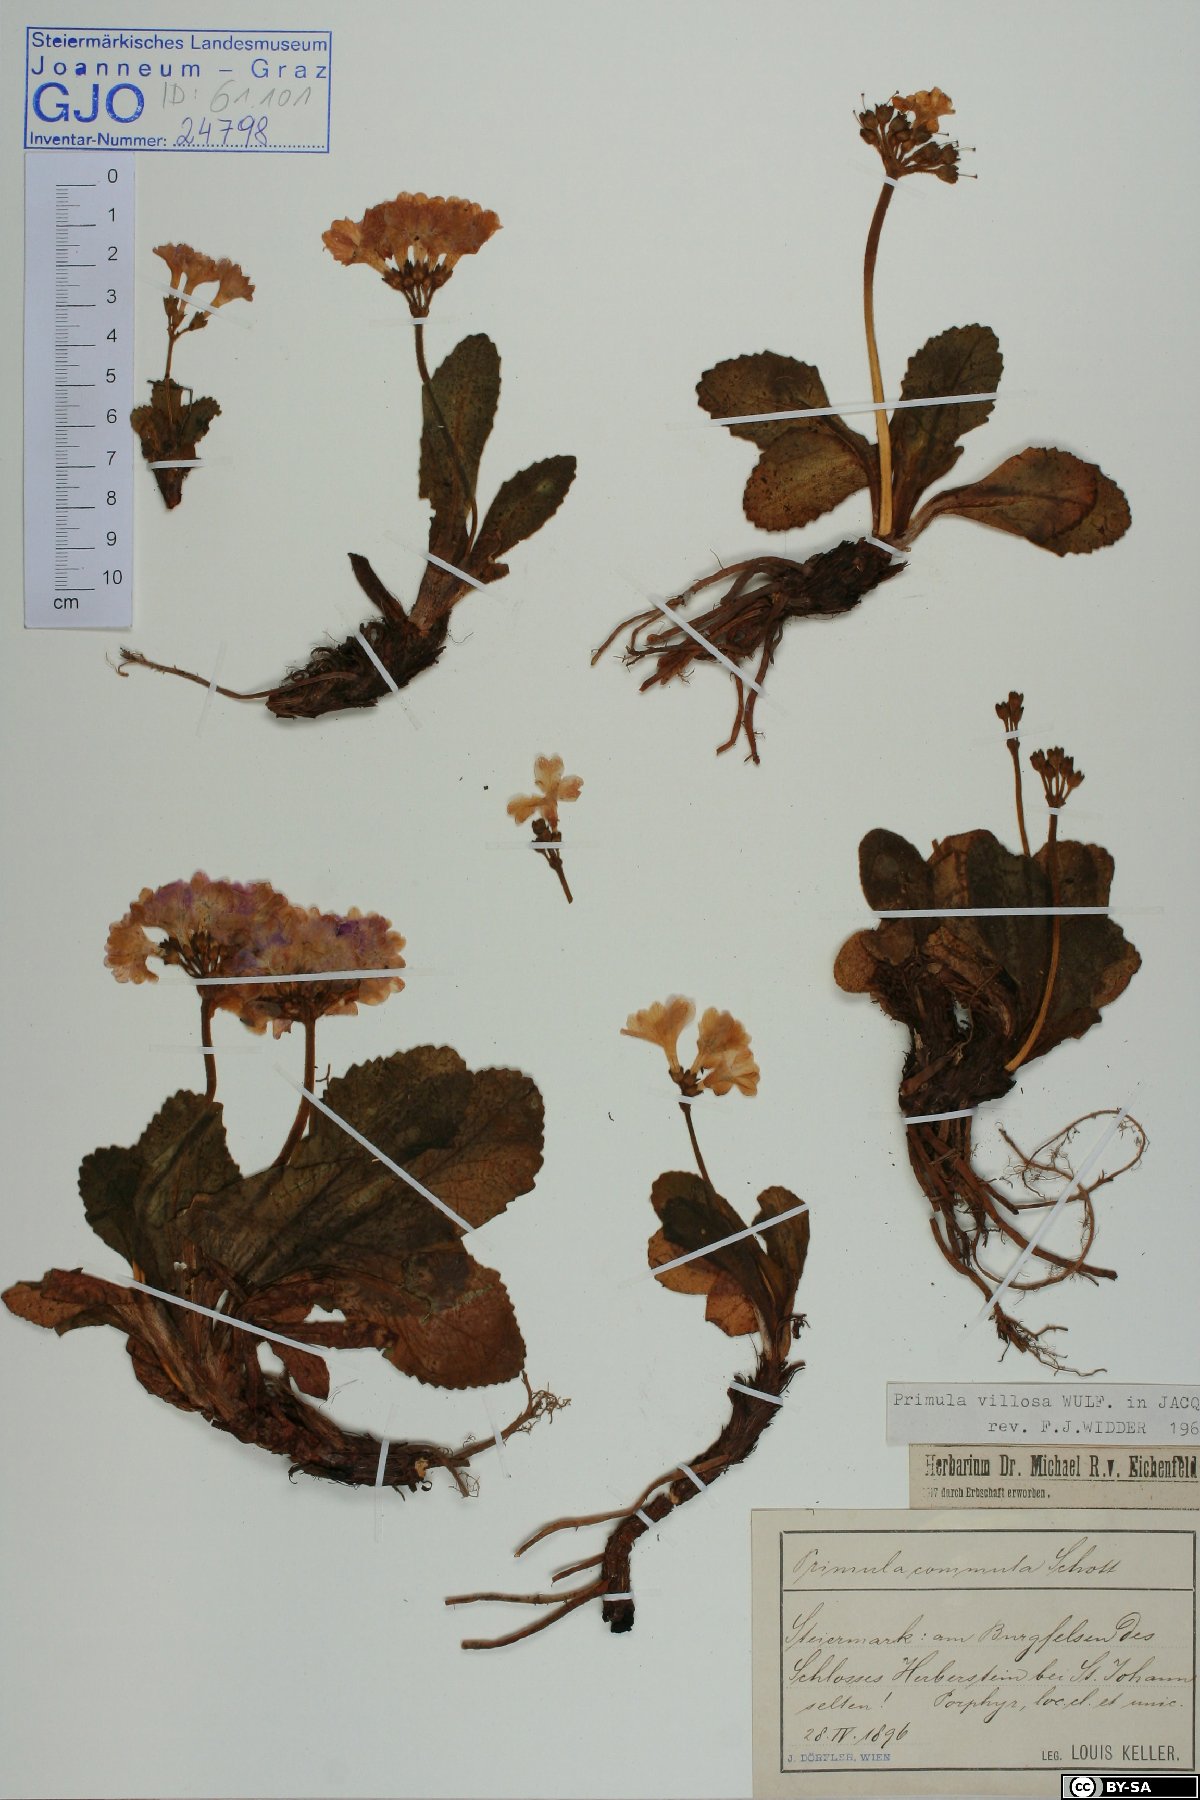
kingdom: Plantae
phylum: Tracheophyta
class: Magnoliopsida
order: Ericales
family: Primulaceae
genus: Primula
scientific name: Primula villosa
